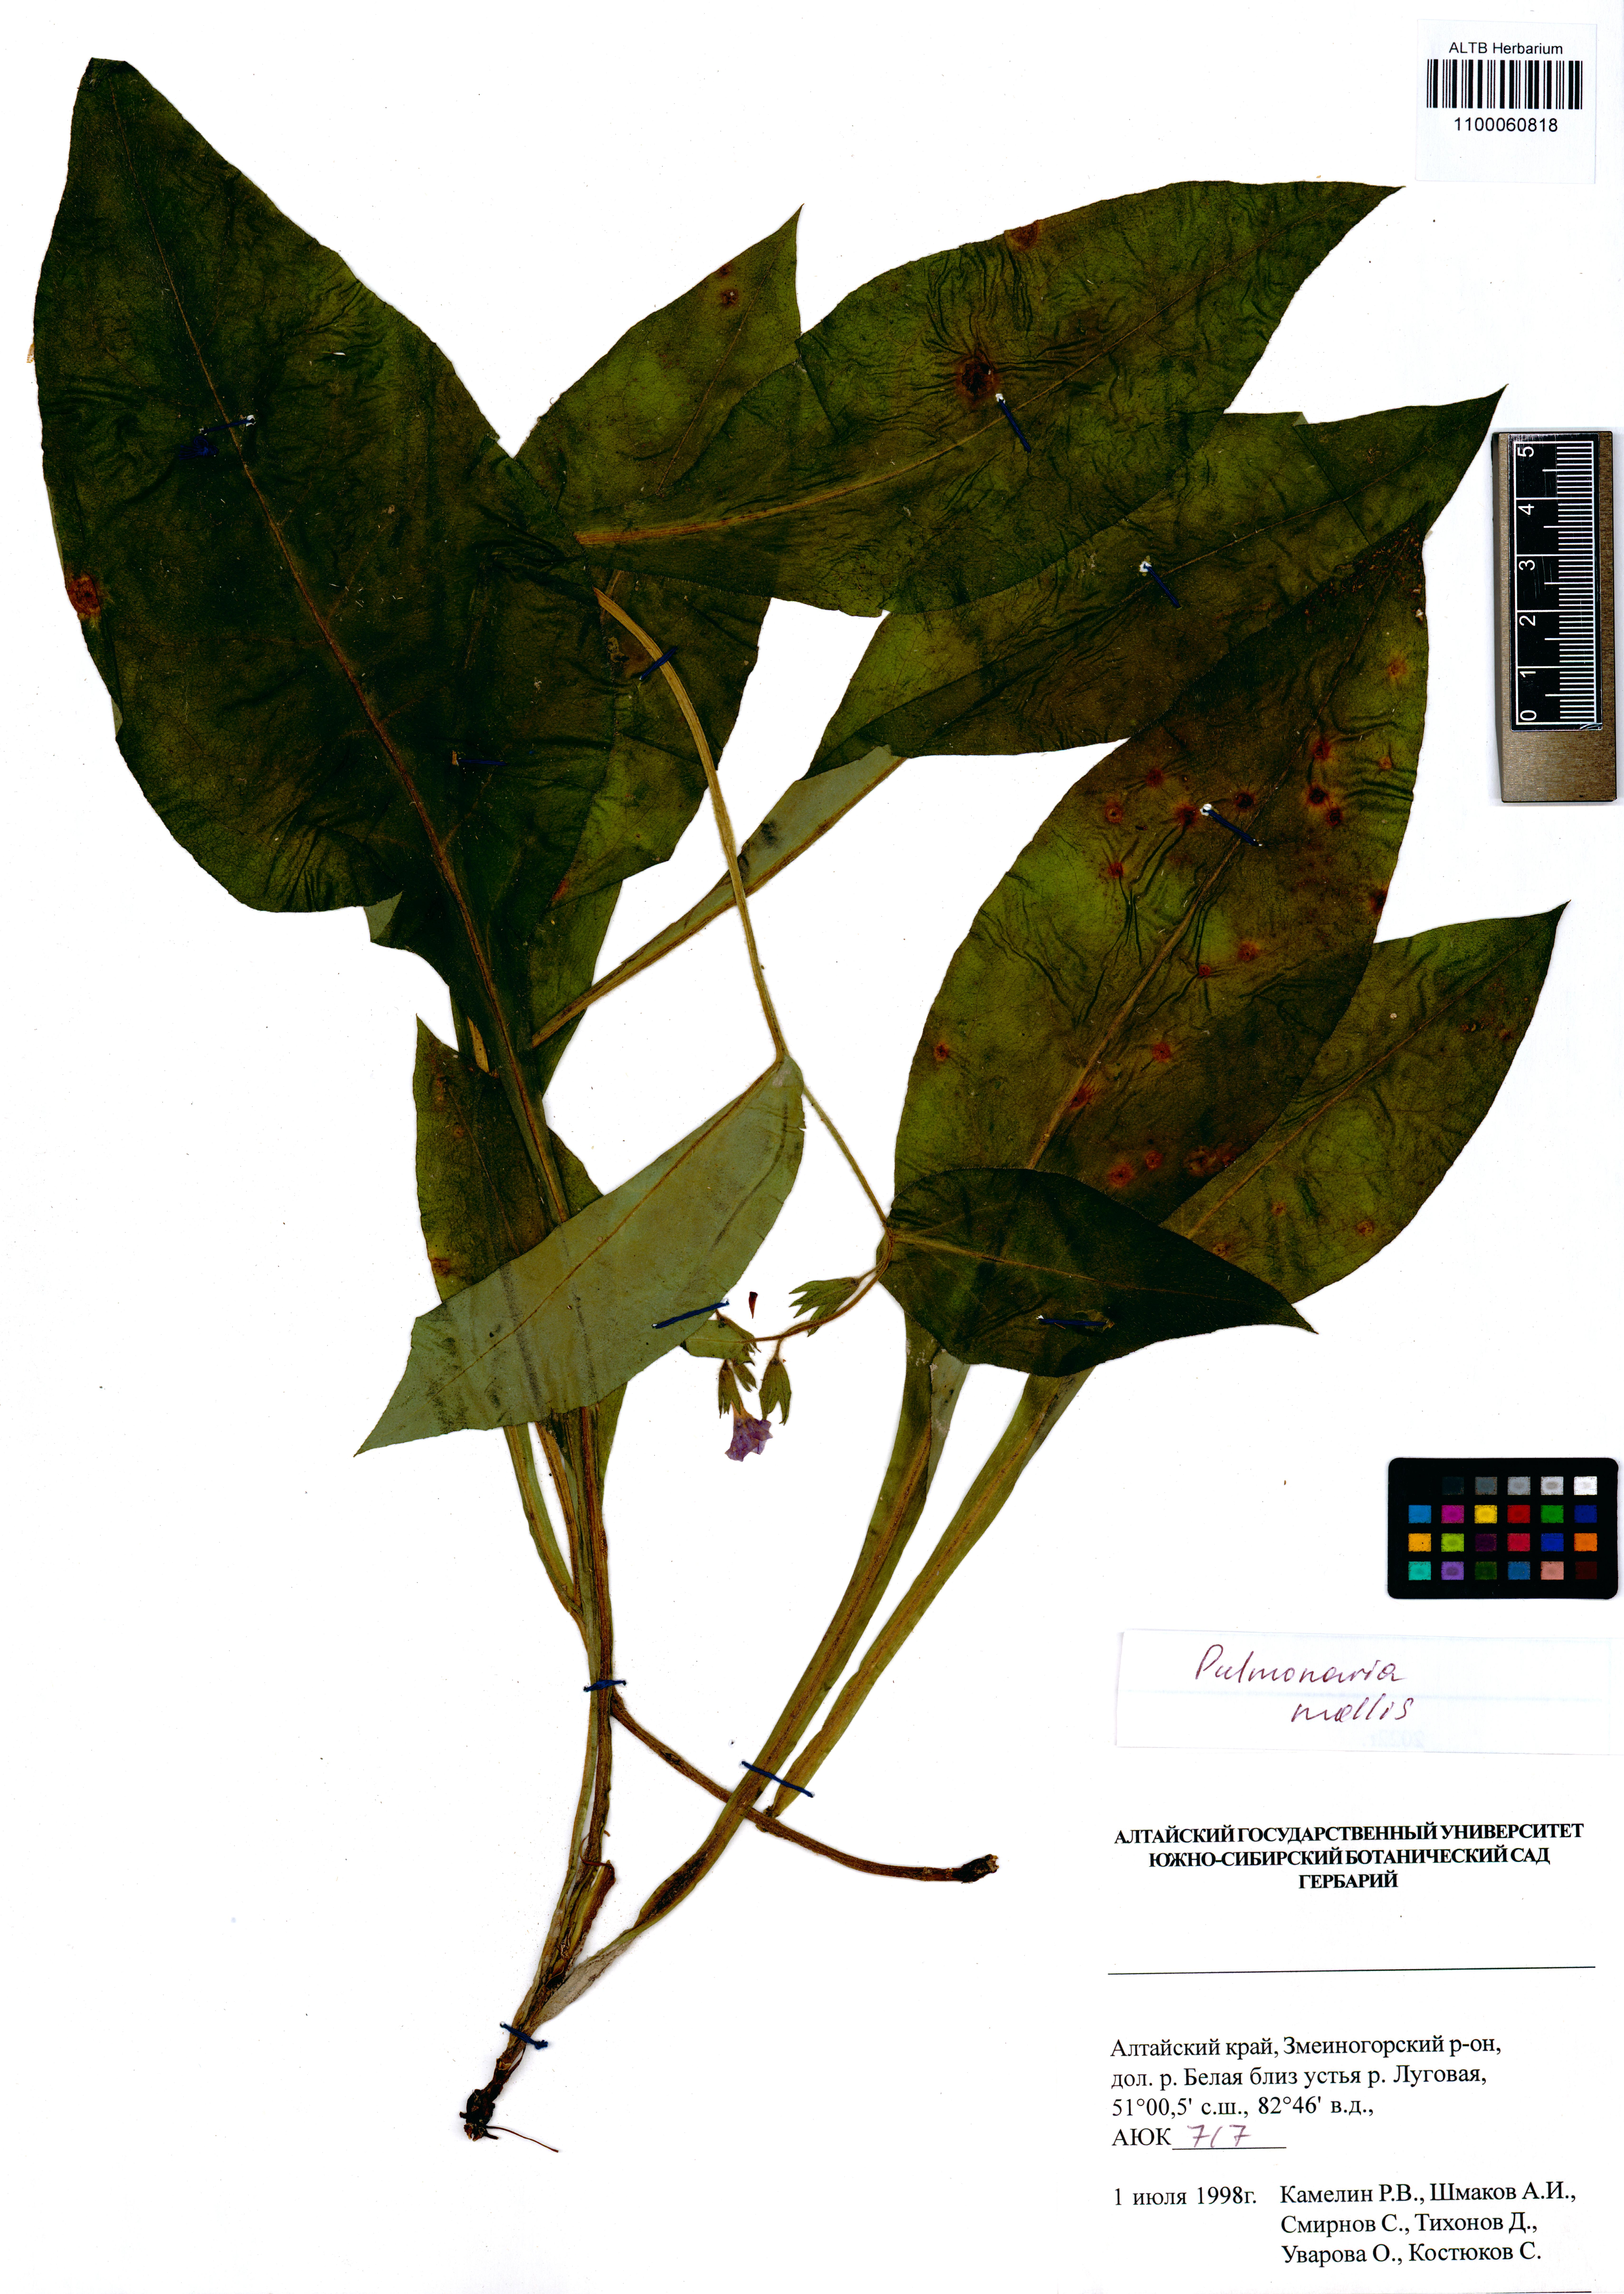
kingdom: Plantae
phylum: Tracheophyta
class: Magnoliopsida
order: Boraginales
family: Boraginaceae
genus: Pulmonaria
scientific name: Pulmonaria mollis
